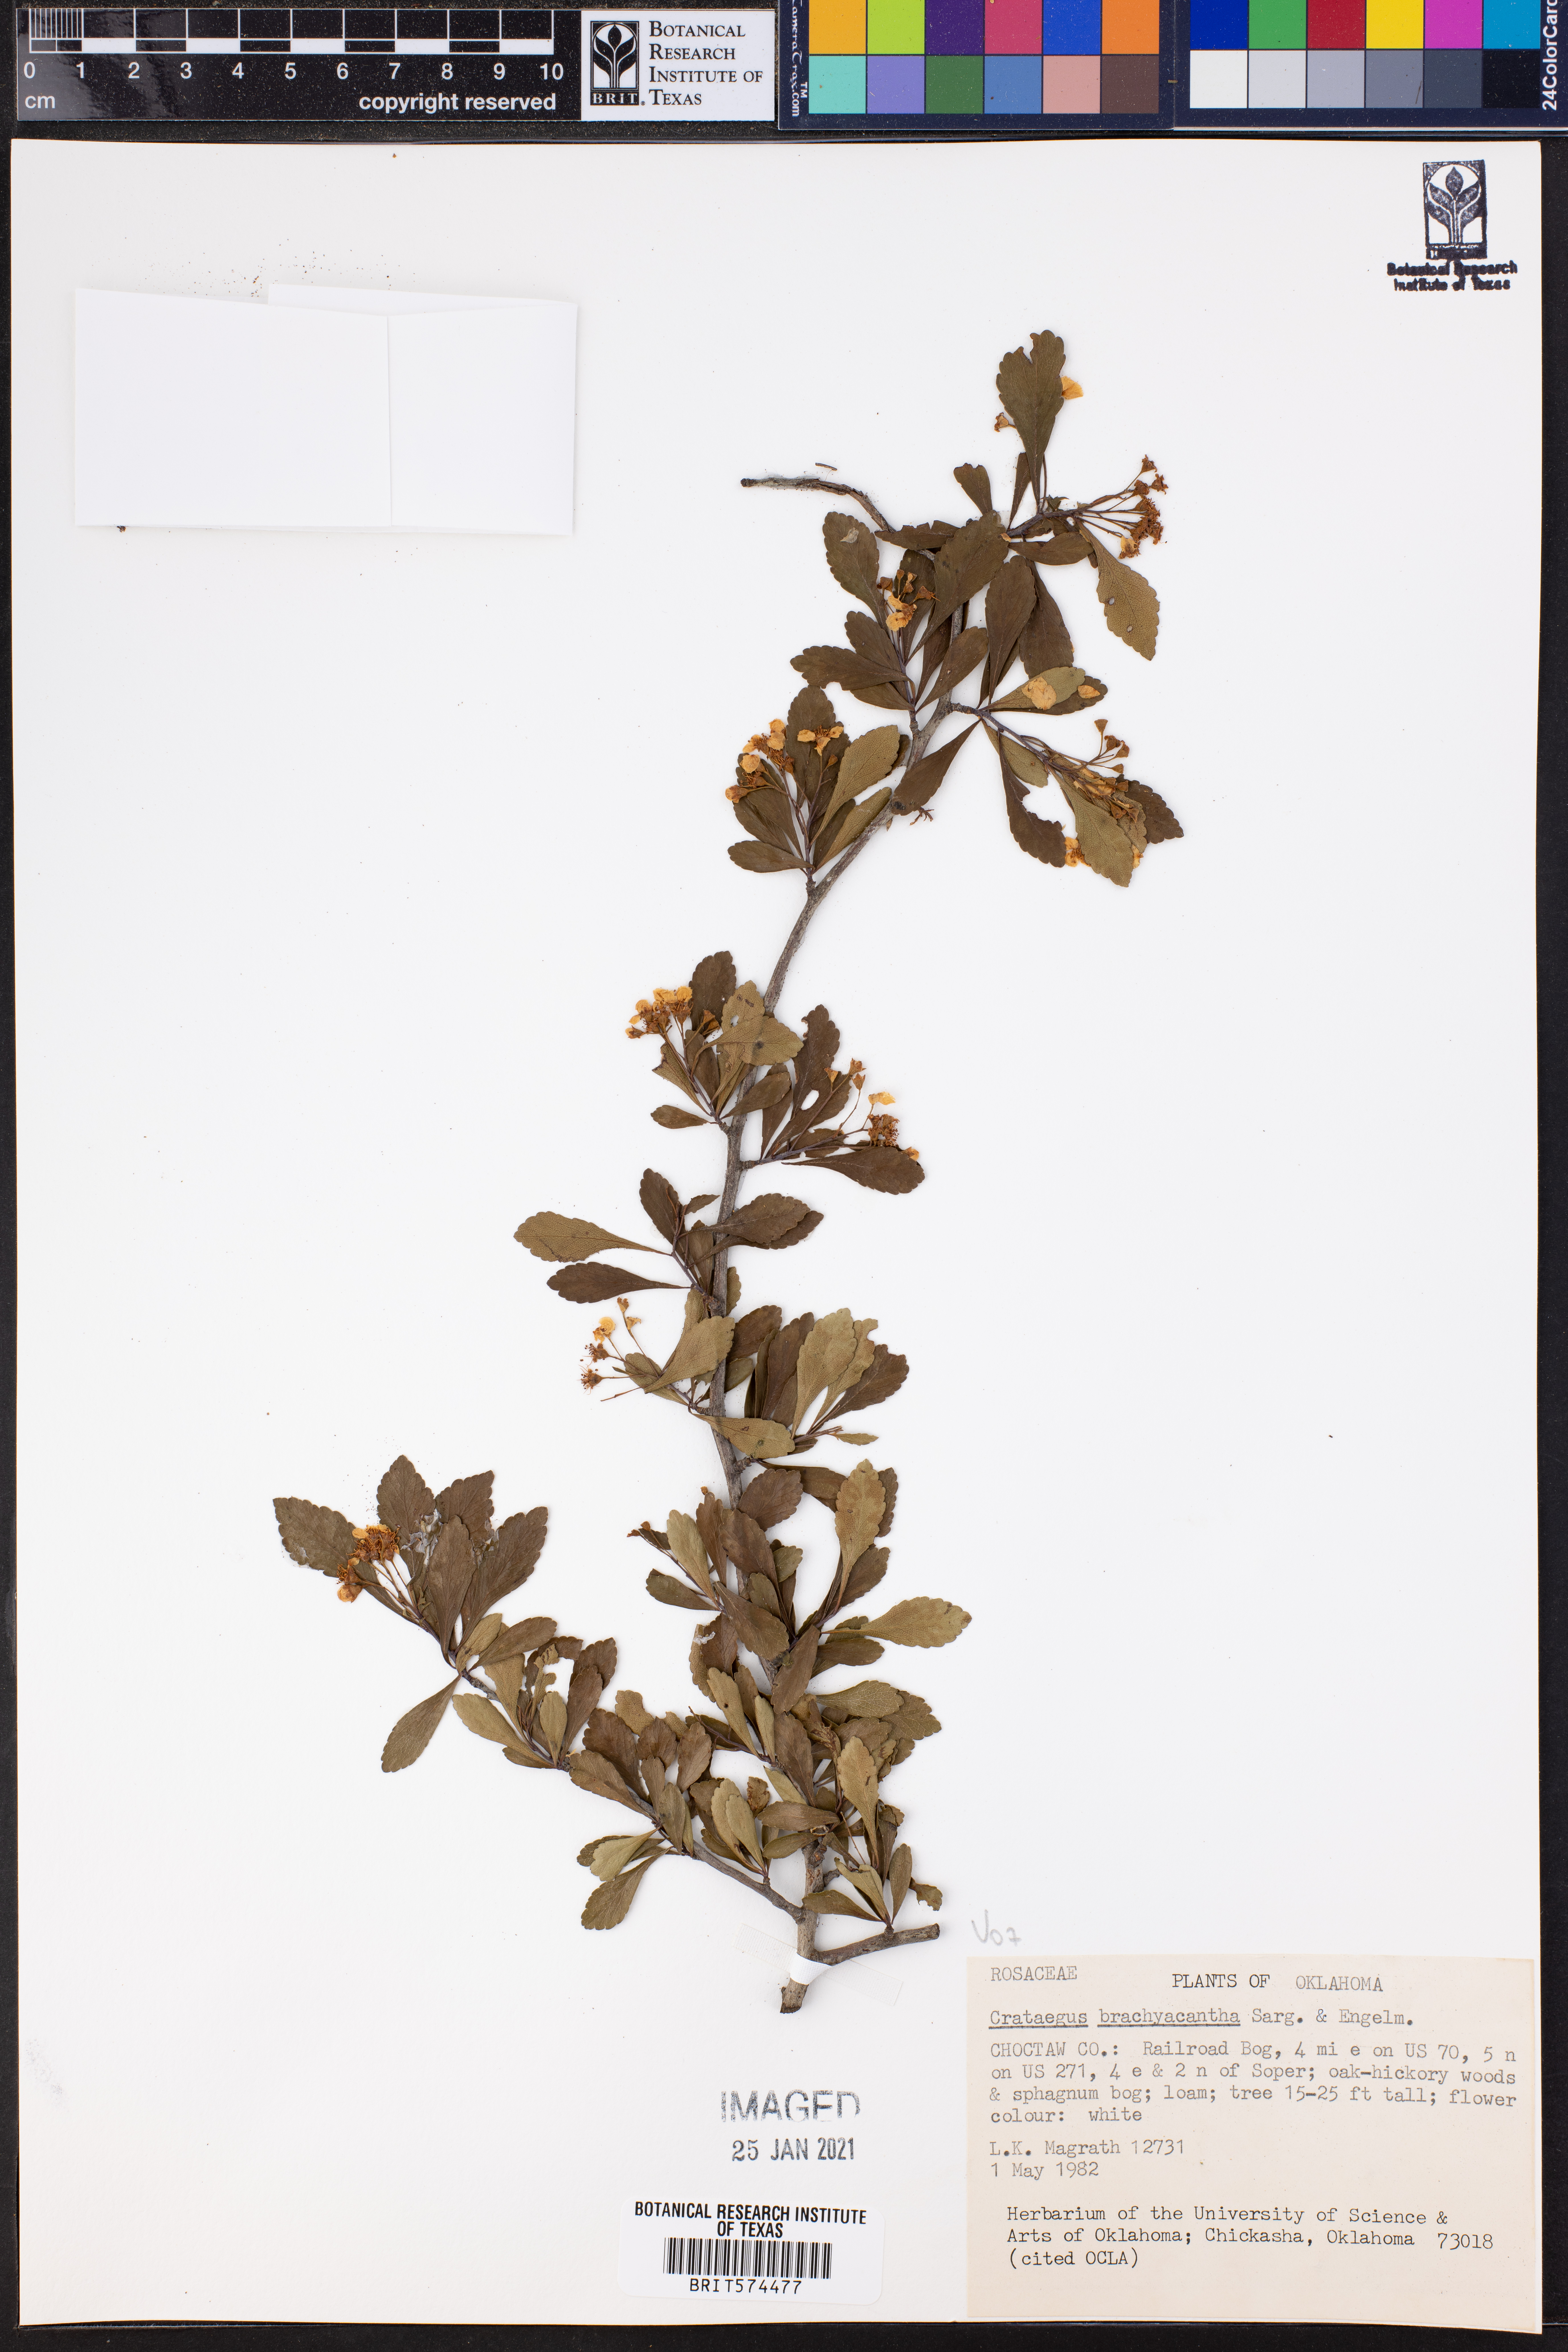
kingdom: Plantae
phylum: Tracheophyta
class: Magnoliopsida
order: Rosales
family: Rosaceae
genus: Crataegus
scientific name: Crataegus brachyacantha
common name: Blueberry-hawthorn
